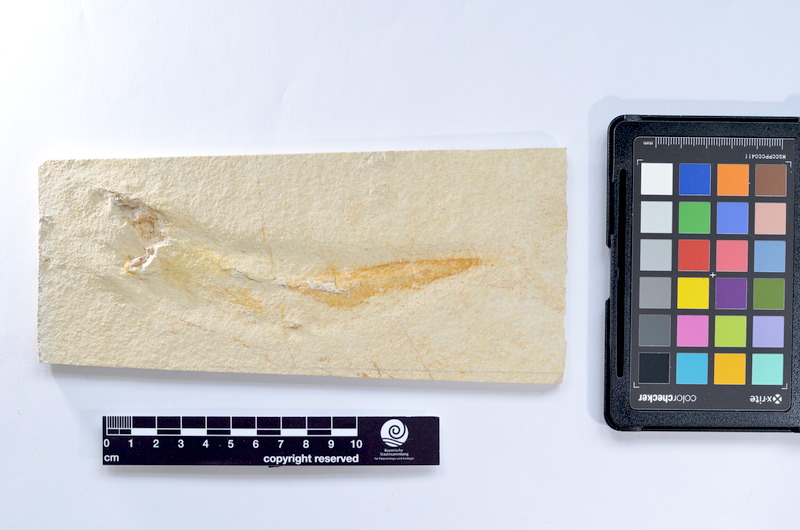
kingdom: Animalia
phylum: Chordata
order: Elopiformes
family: Anaethalionidae
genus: Anaethalion
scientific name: Anaethalion knorri
